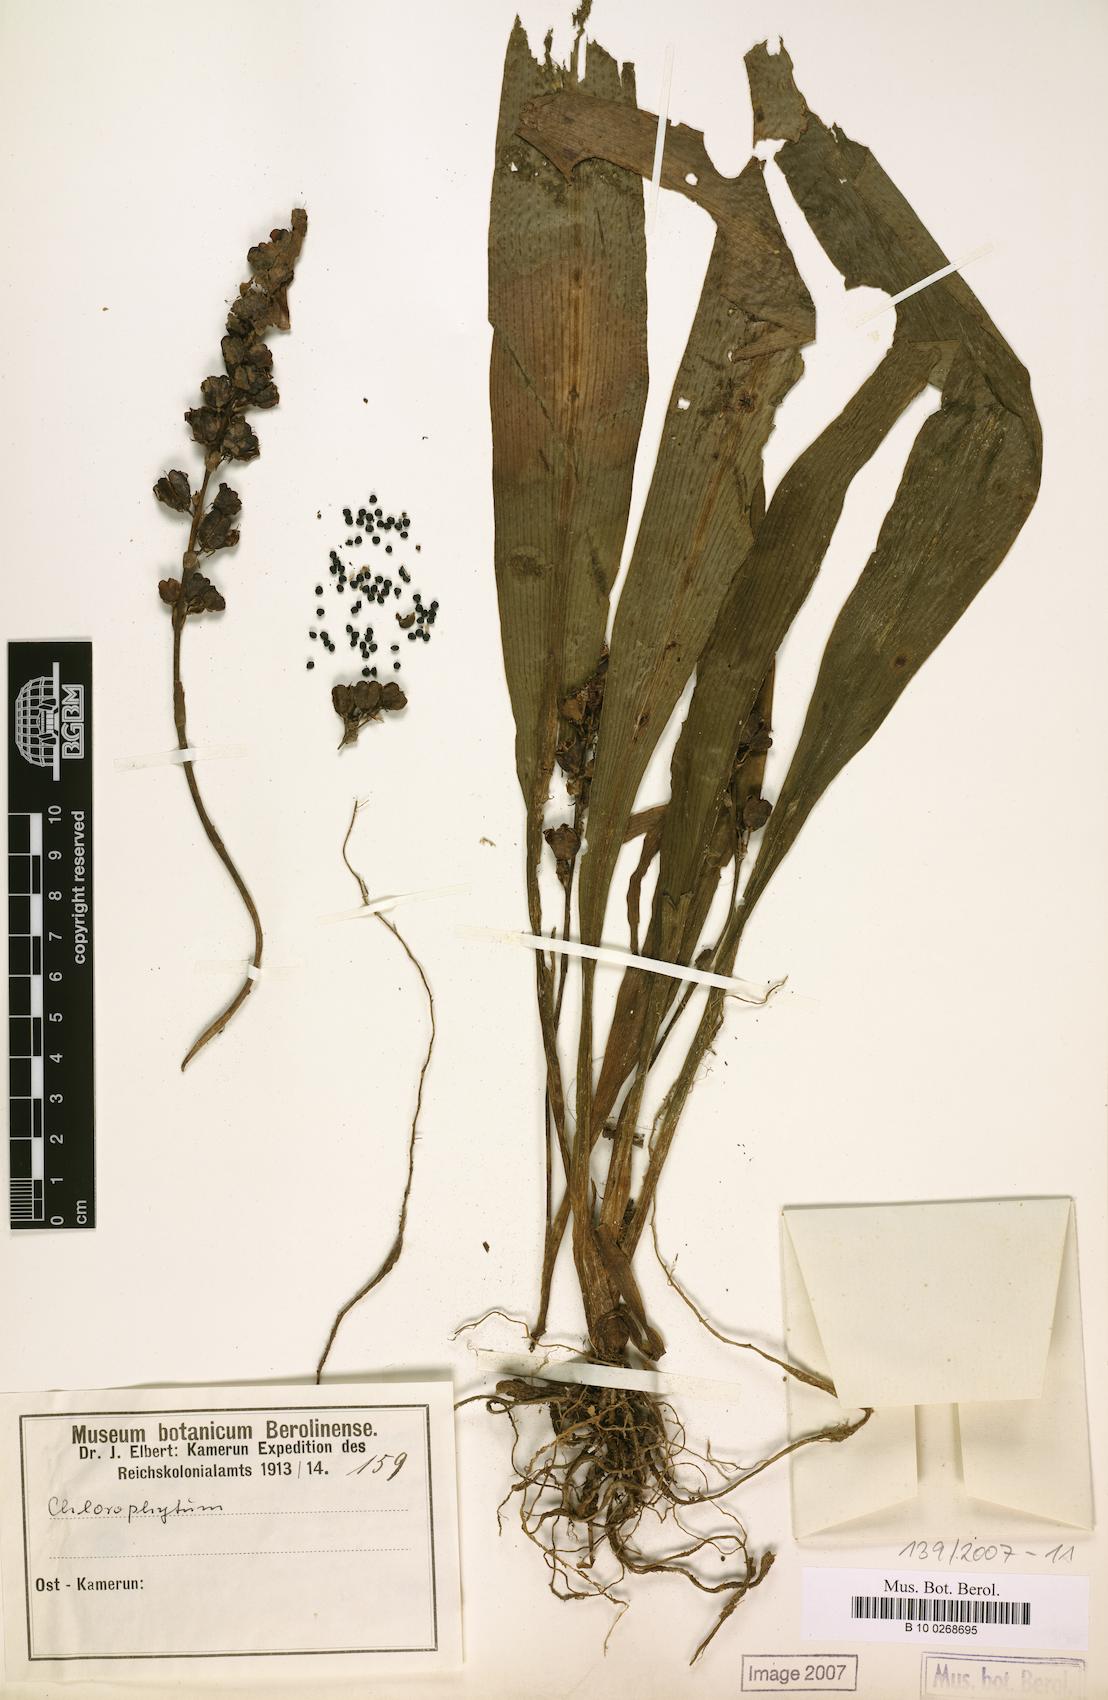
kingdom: Plantae
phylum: Tracheophyta
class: Liliopsida
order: Asparagales
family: Asparagaceae
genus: Chlorophytum
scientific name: Chlorophytum stenopetalum
